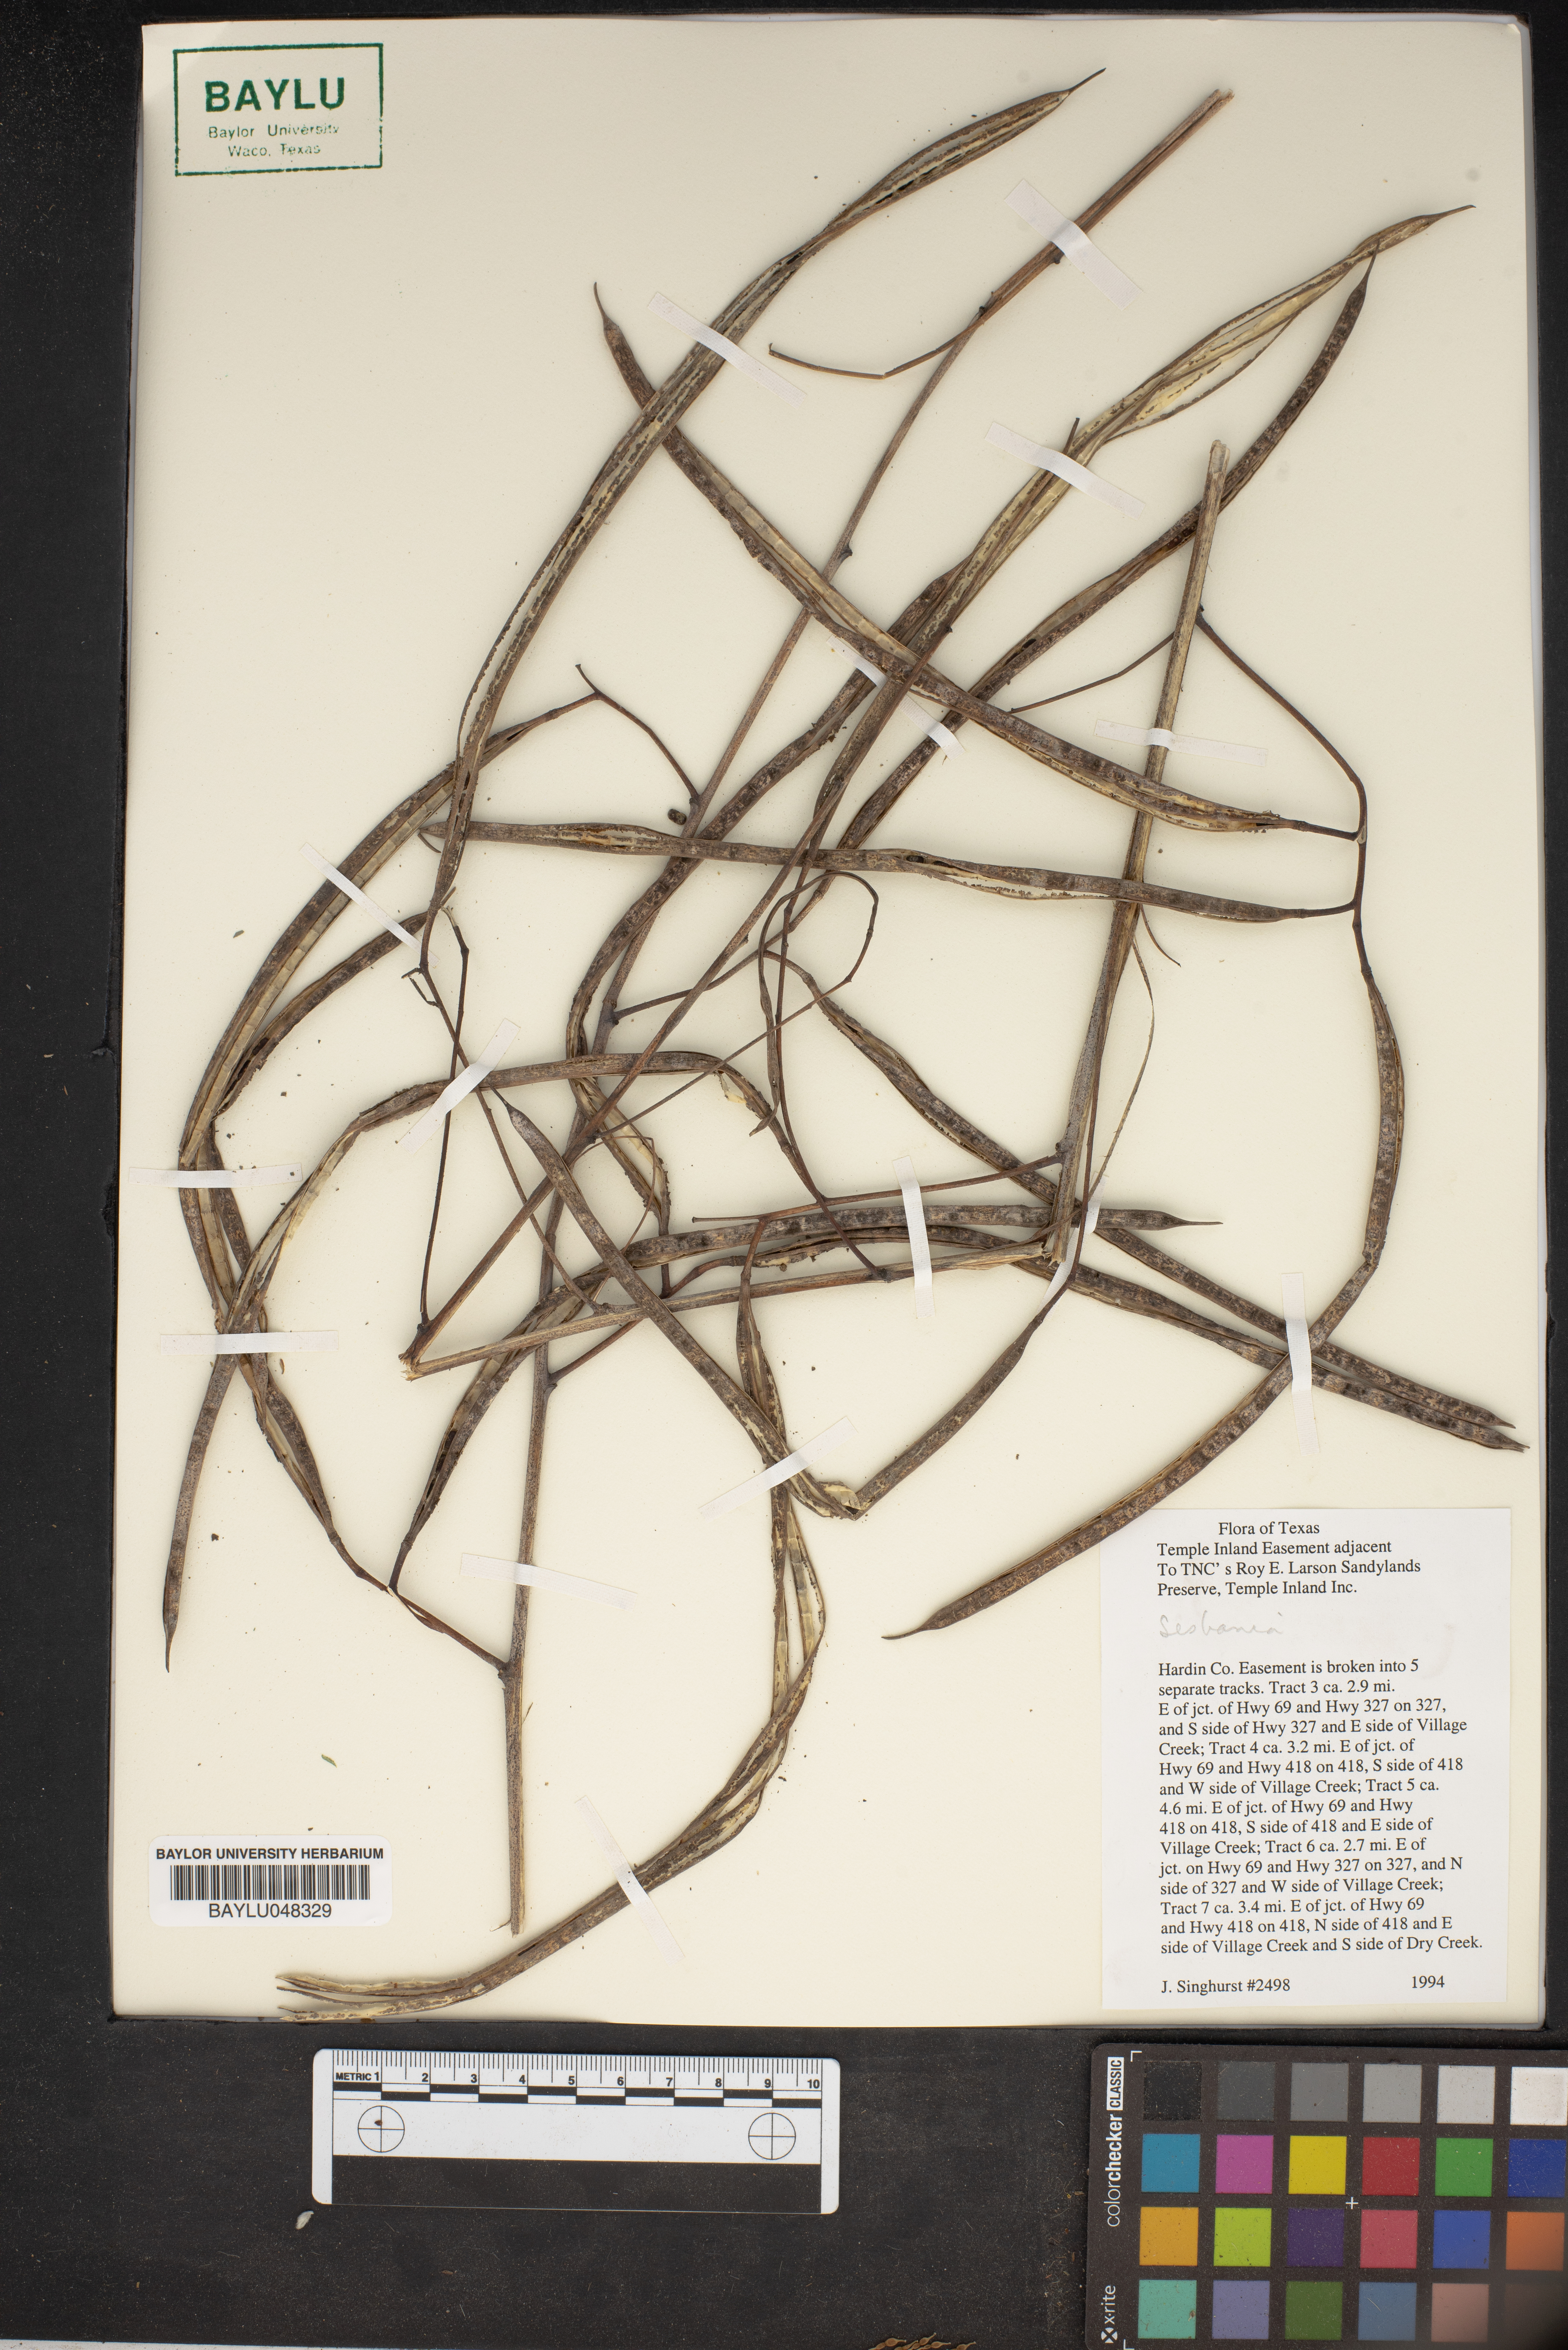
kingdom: Plantae
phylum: Tracheophyta
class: Magnoliopsida
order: Fabales
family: Fabaceae
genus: Sesbania
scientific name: Sesbania
